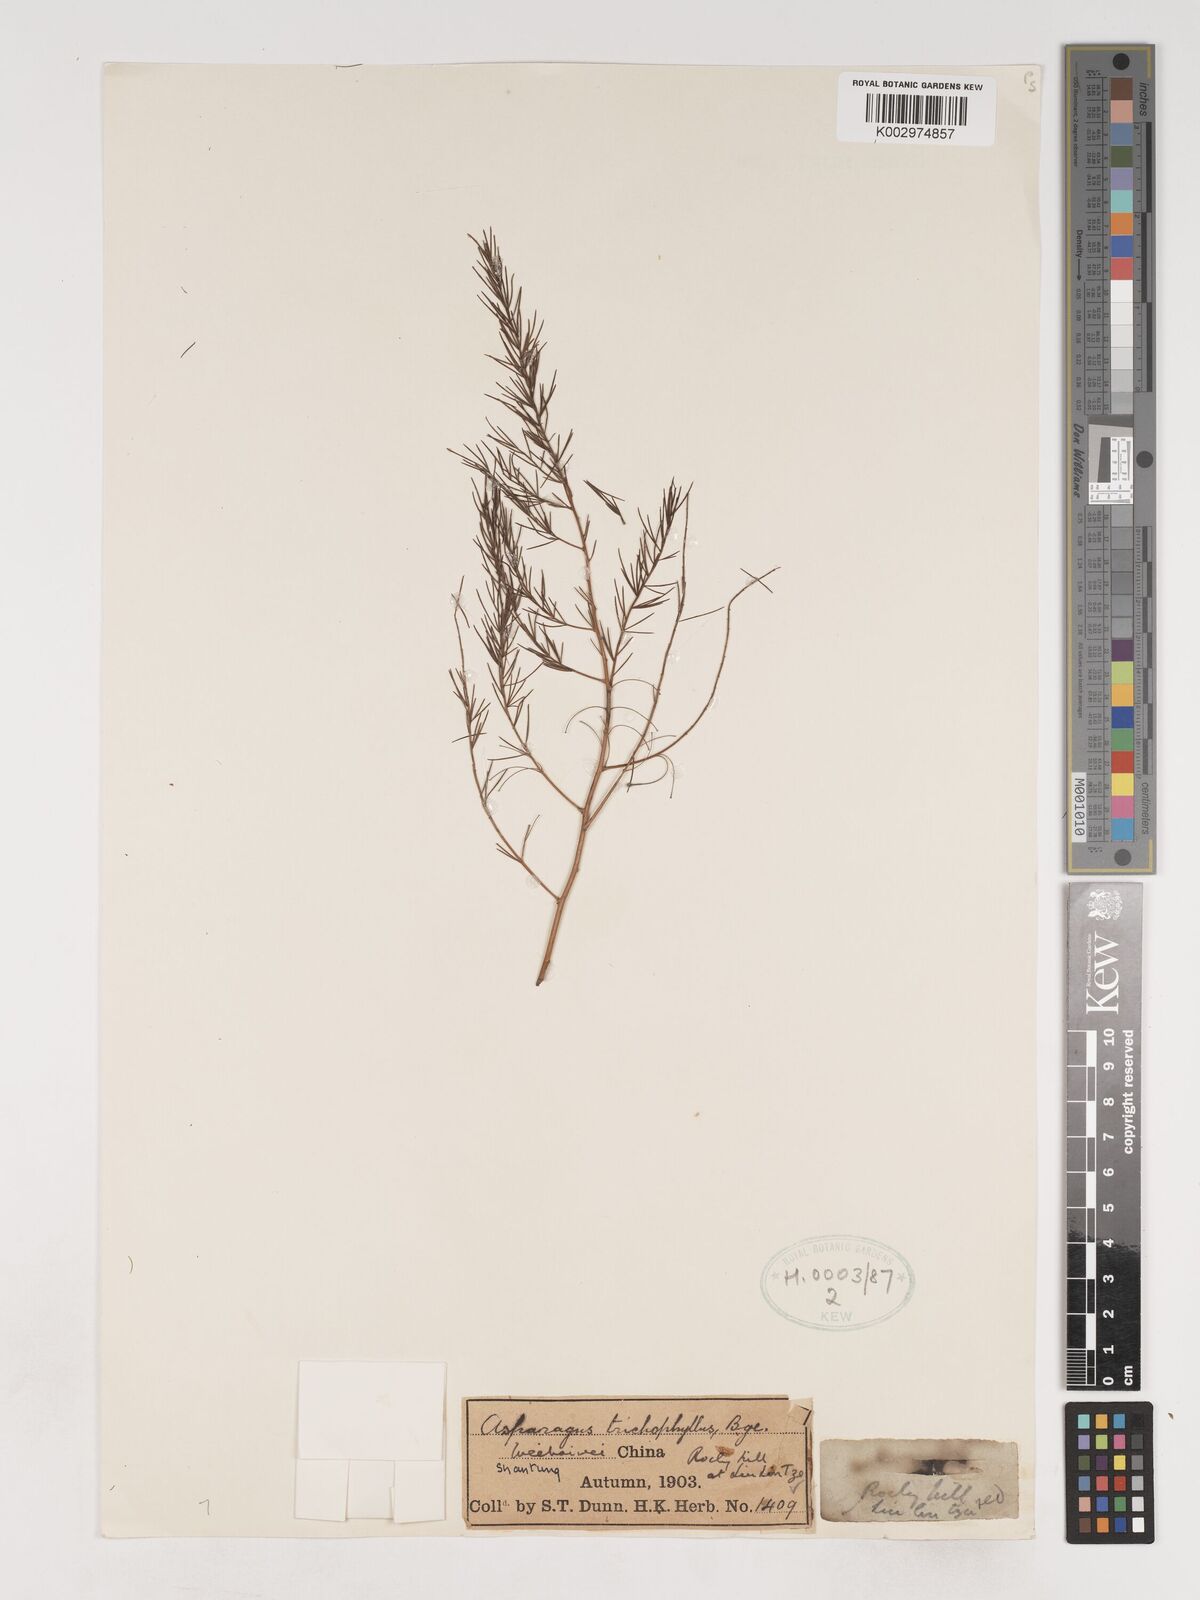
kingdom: Plantae
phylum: Tracheophyta
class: Liliopsida
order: Asparagales
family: Asparagaceae
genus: Asparagus
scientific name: Asparagus trichophyllus
